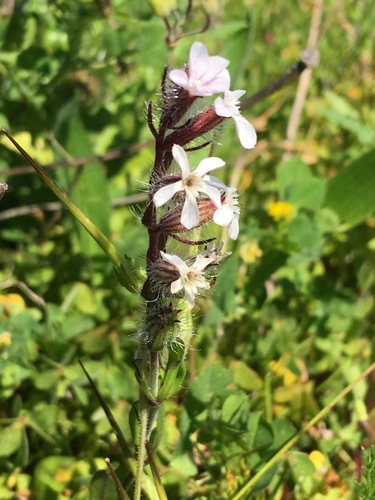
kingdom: Plantae
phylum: Tracheophyta
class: Magnoliopsida
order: Caryophyllales
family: Caryophyllaceae
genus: Silene
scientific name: Silene gallica
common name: Small-flowered catchfly
